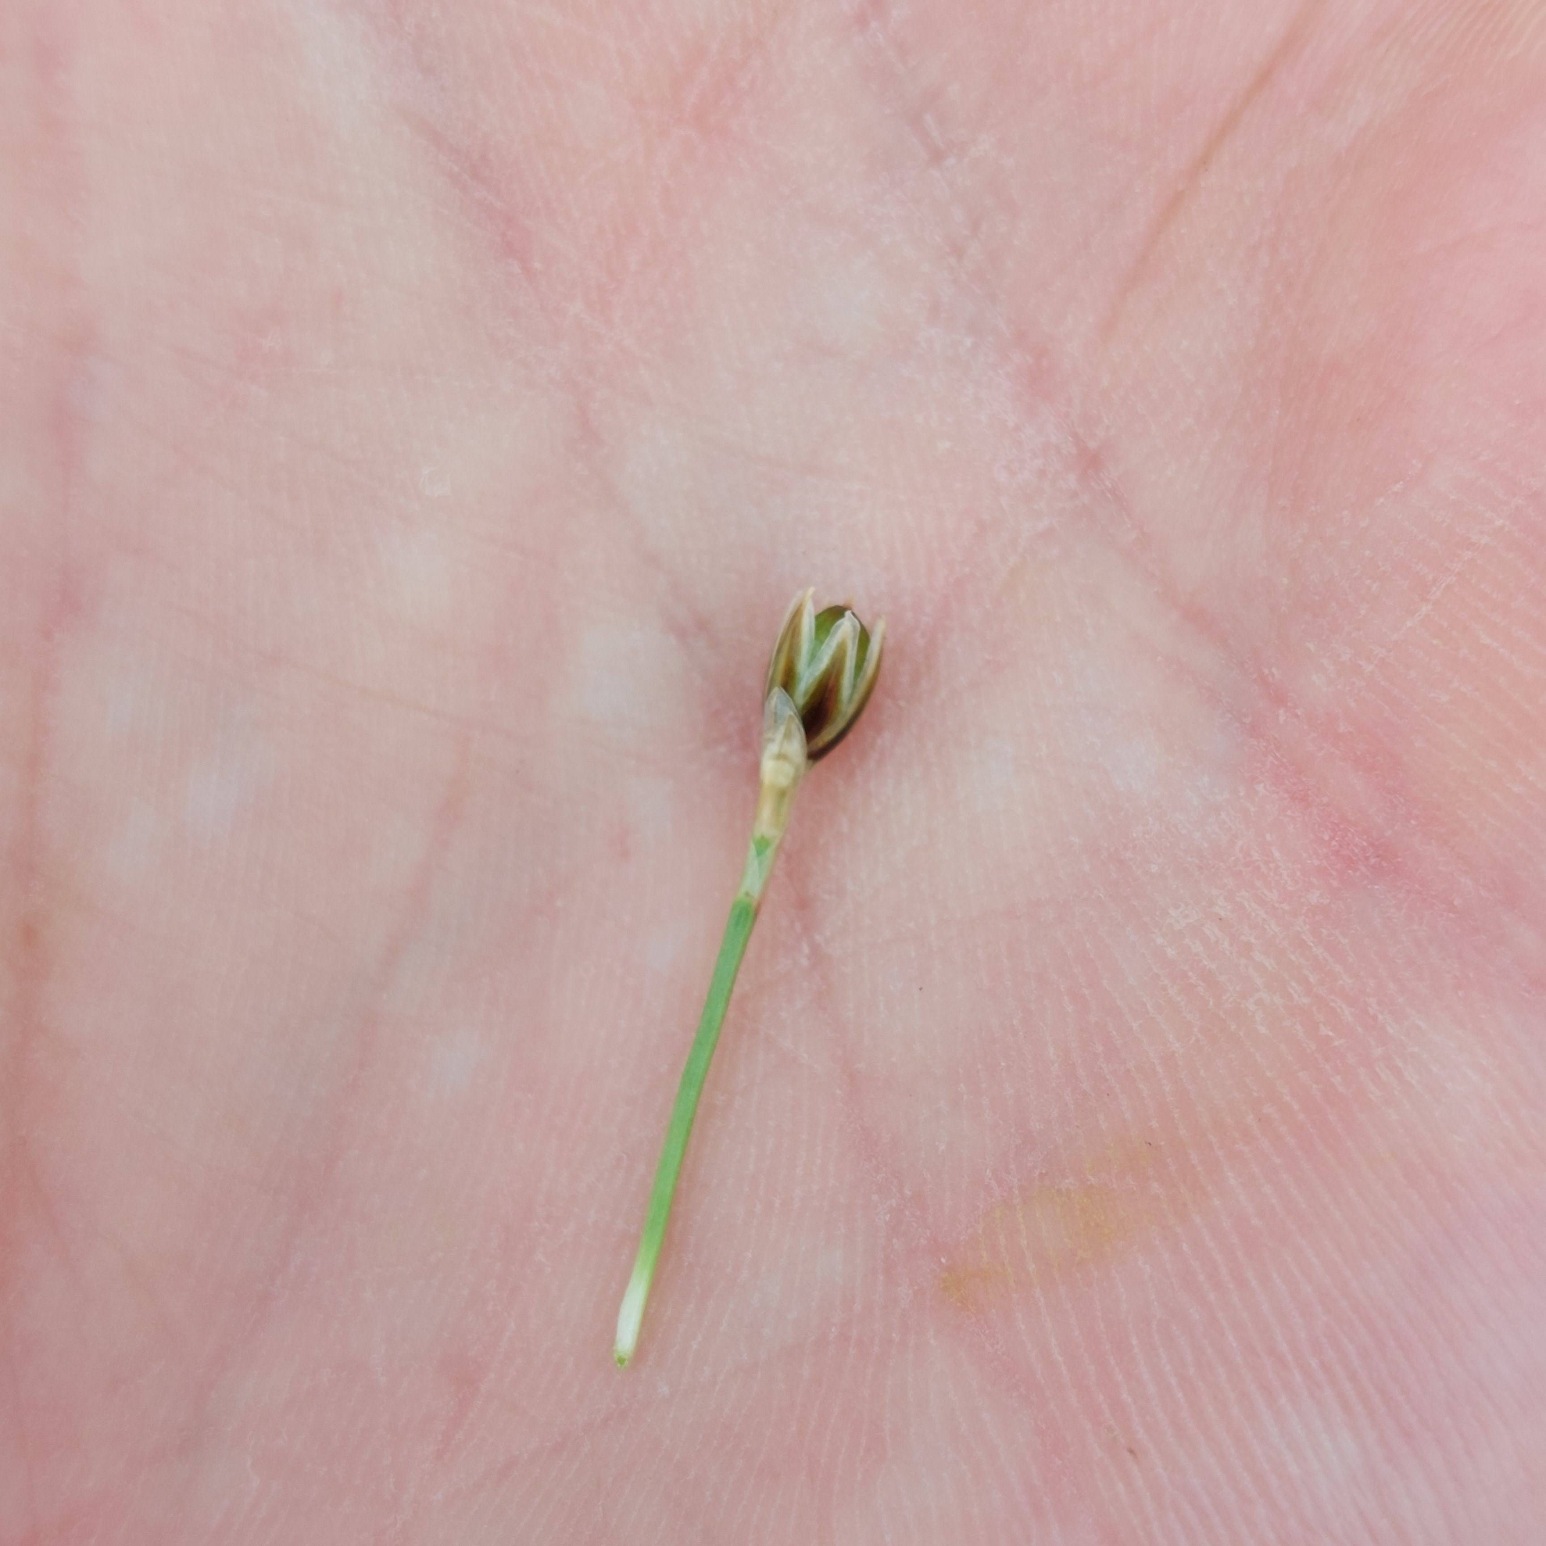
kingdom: Plantae
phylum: Tracheophyta
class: Liliopsida
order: Poales
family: Juncaceae
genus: Juncus
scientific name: Juncus squarrosus
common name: Børste-siv
